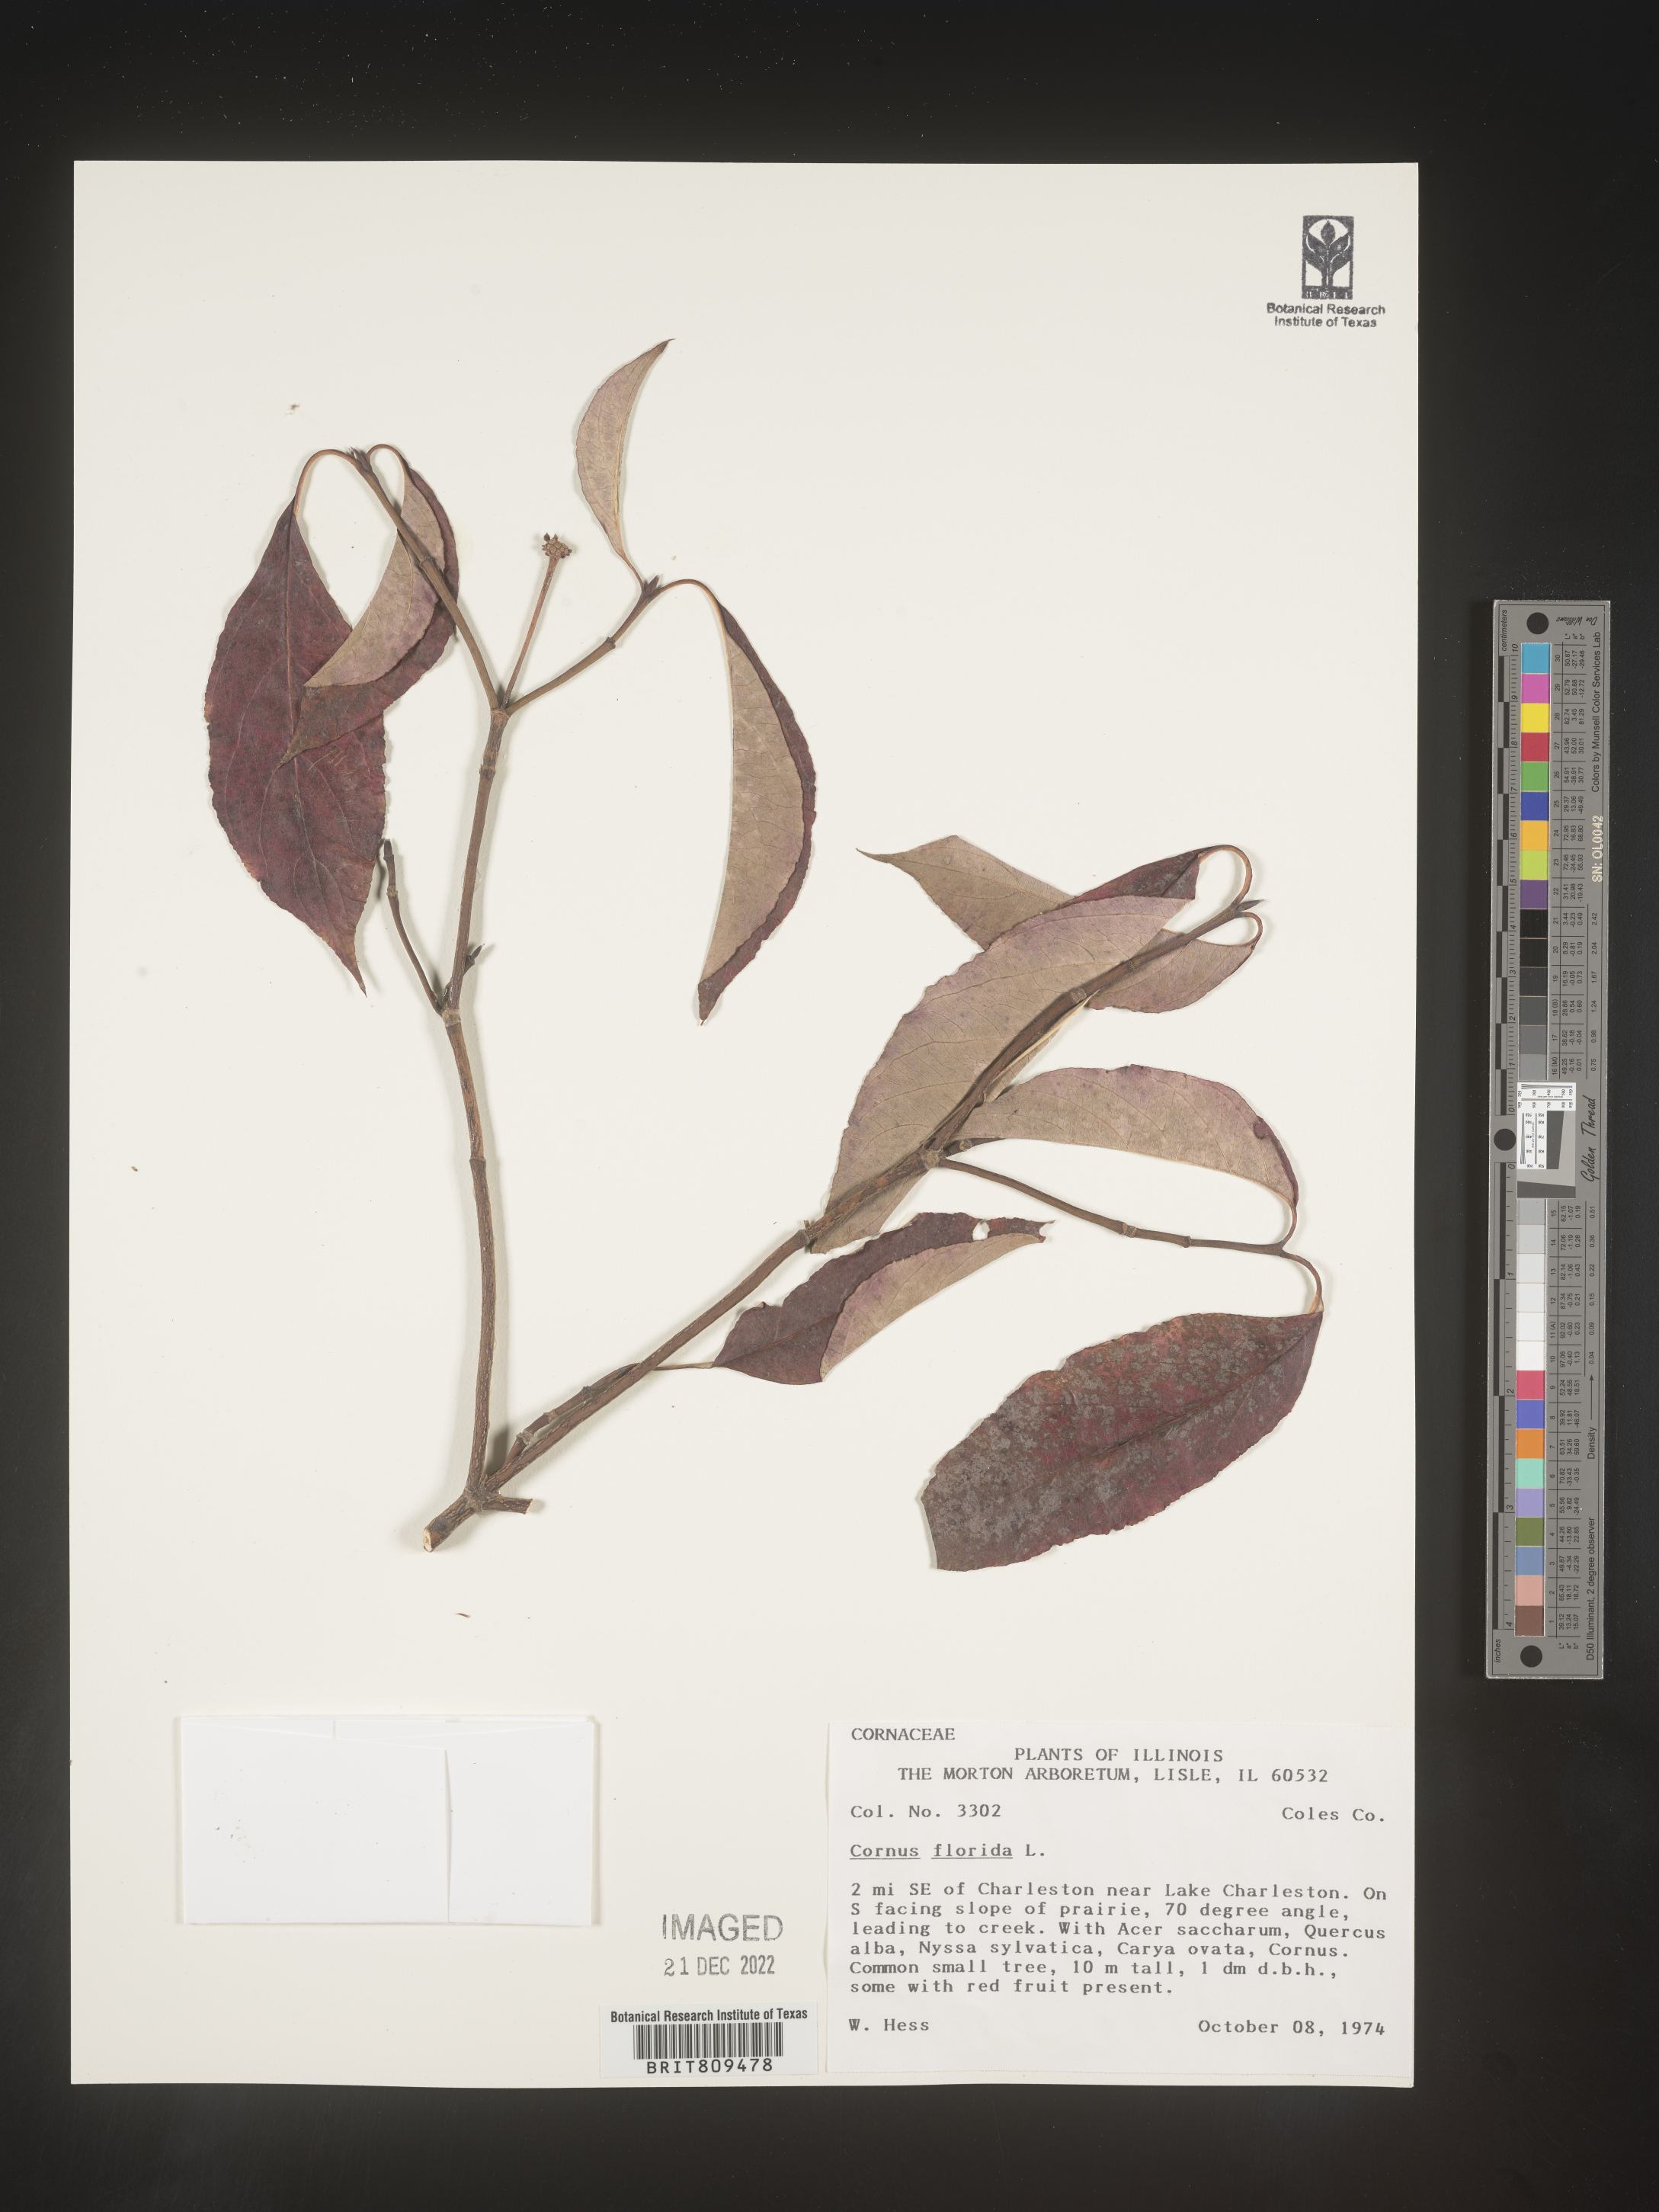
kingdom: Plantae
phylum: Tracheophyta
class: Magnoliopsida
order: Cornales
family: Cornaceae
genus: Cornus
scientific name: Cornus florida
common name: Flowering dogwood
